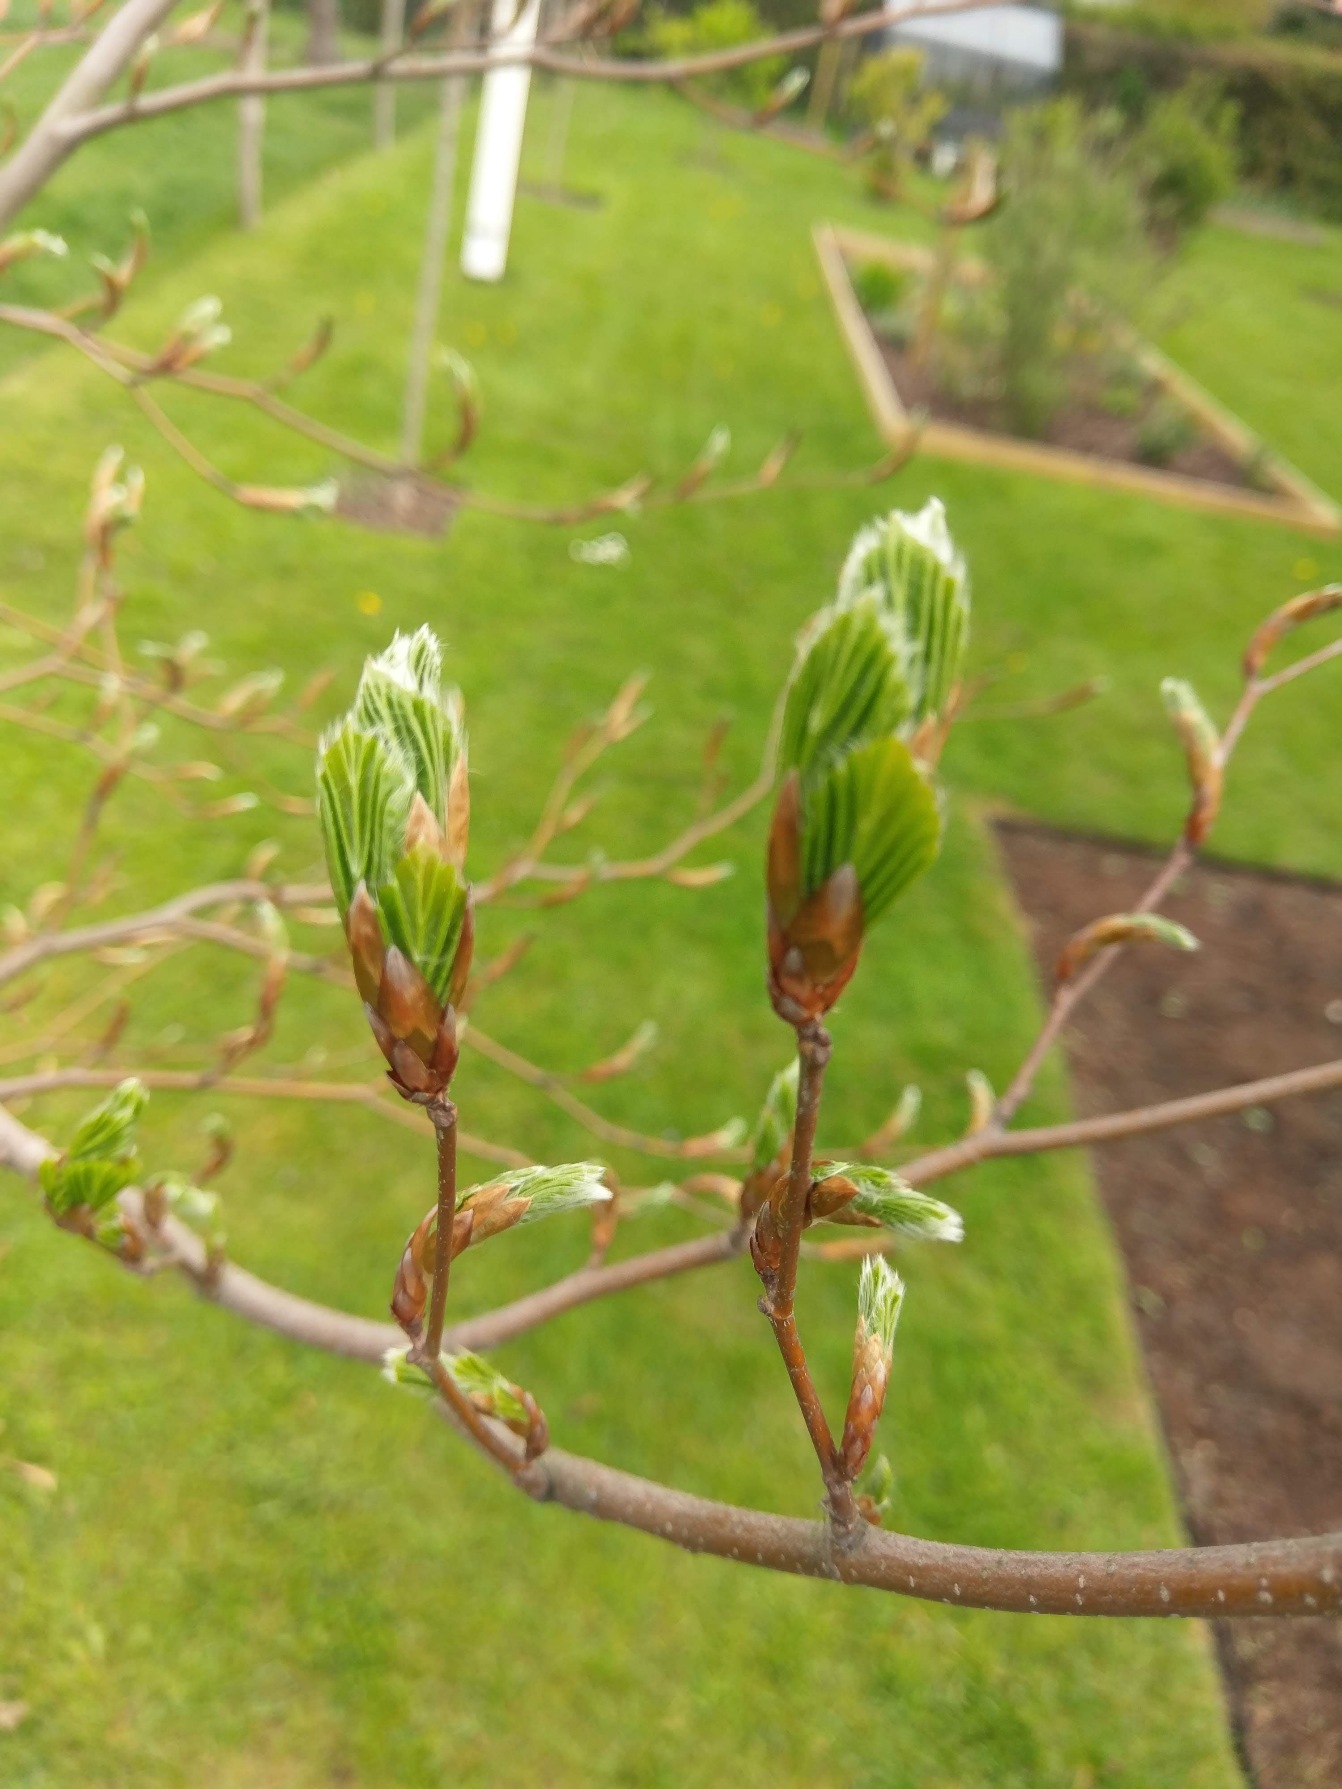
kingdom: Plantae
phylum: Tracheophyta
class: Magnoliopsida
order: Fagales
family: Fagaceae
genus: Fagus
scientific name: Fagus sylvatica
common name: Bøg
